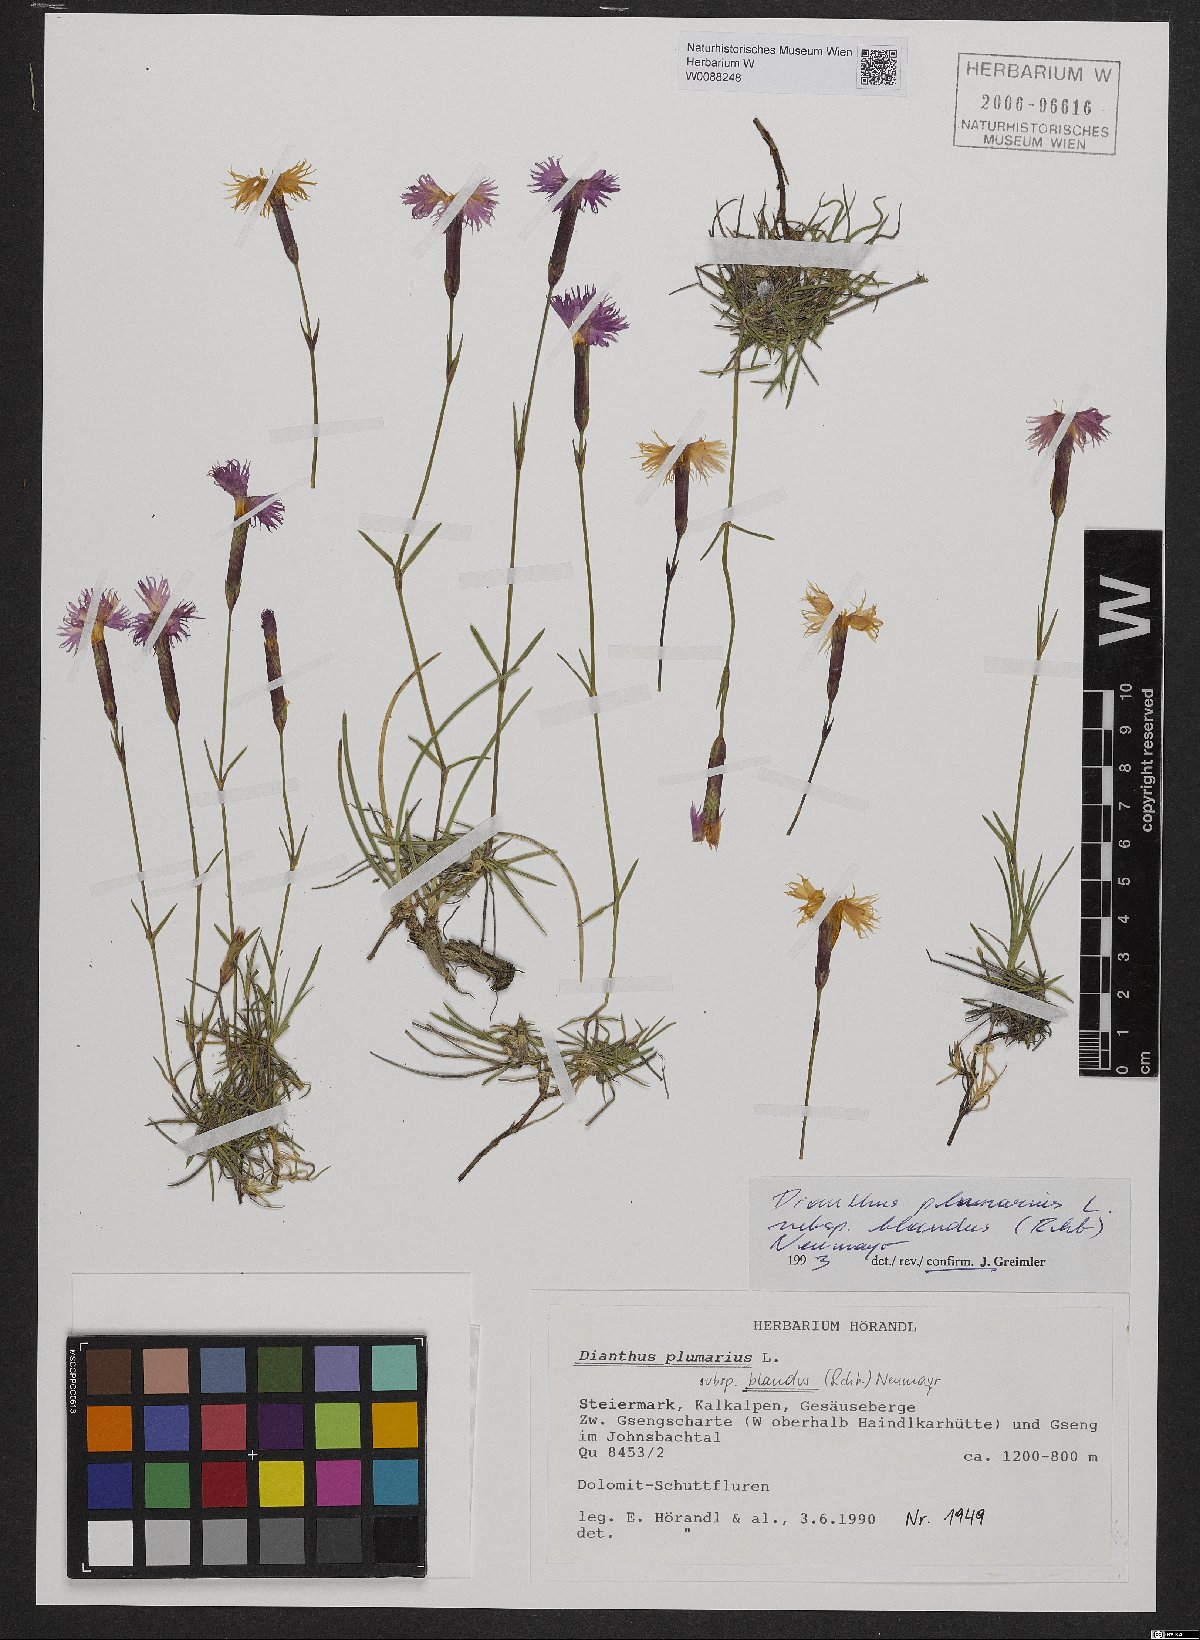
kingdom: Plantae
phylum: Tracheophyta
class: Magnoliopsida
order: Caryophyllales
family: Caryophyllaceae
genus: Dianthus
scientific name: Dianthus plumarius
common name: Pink
